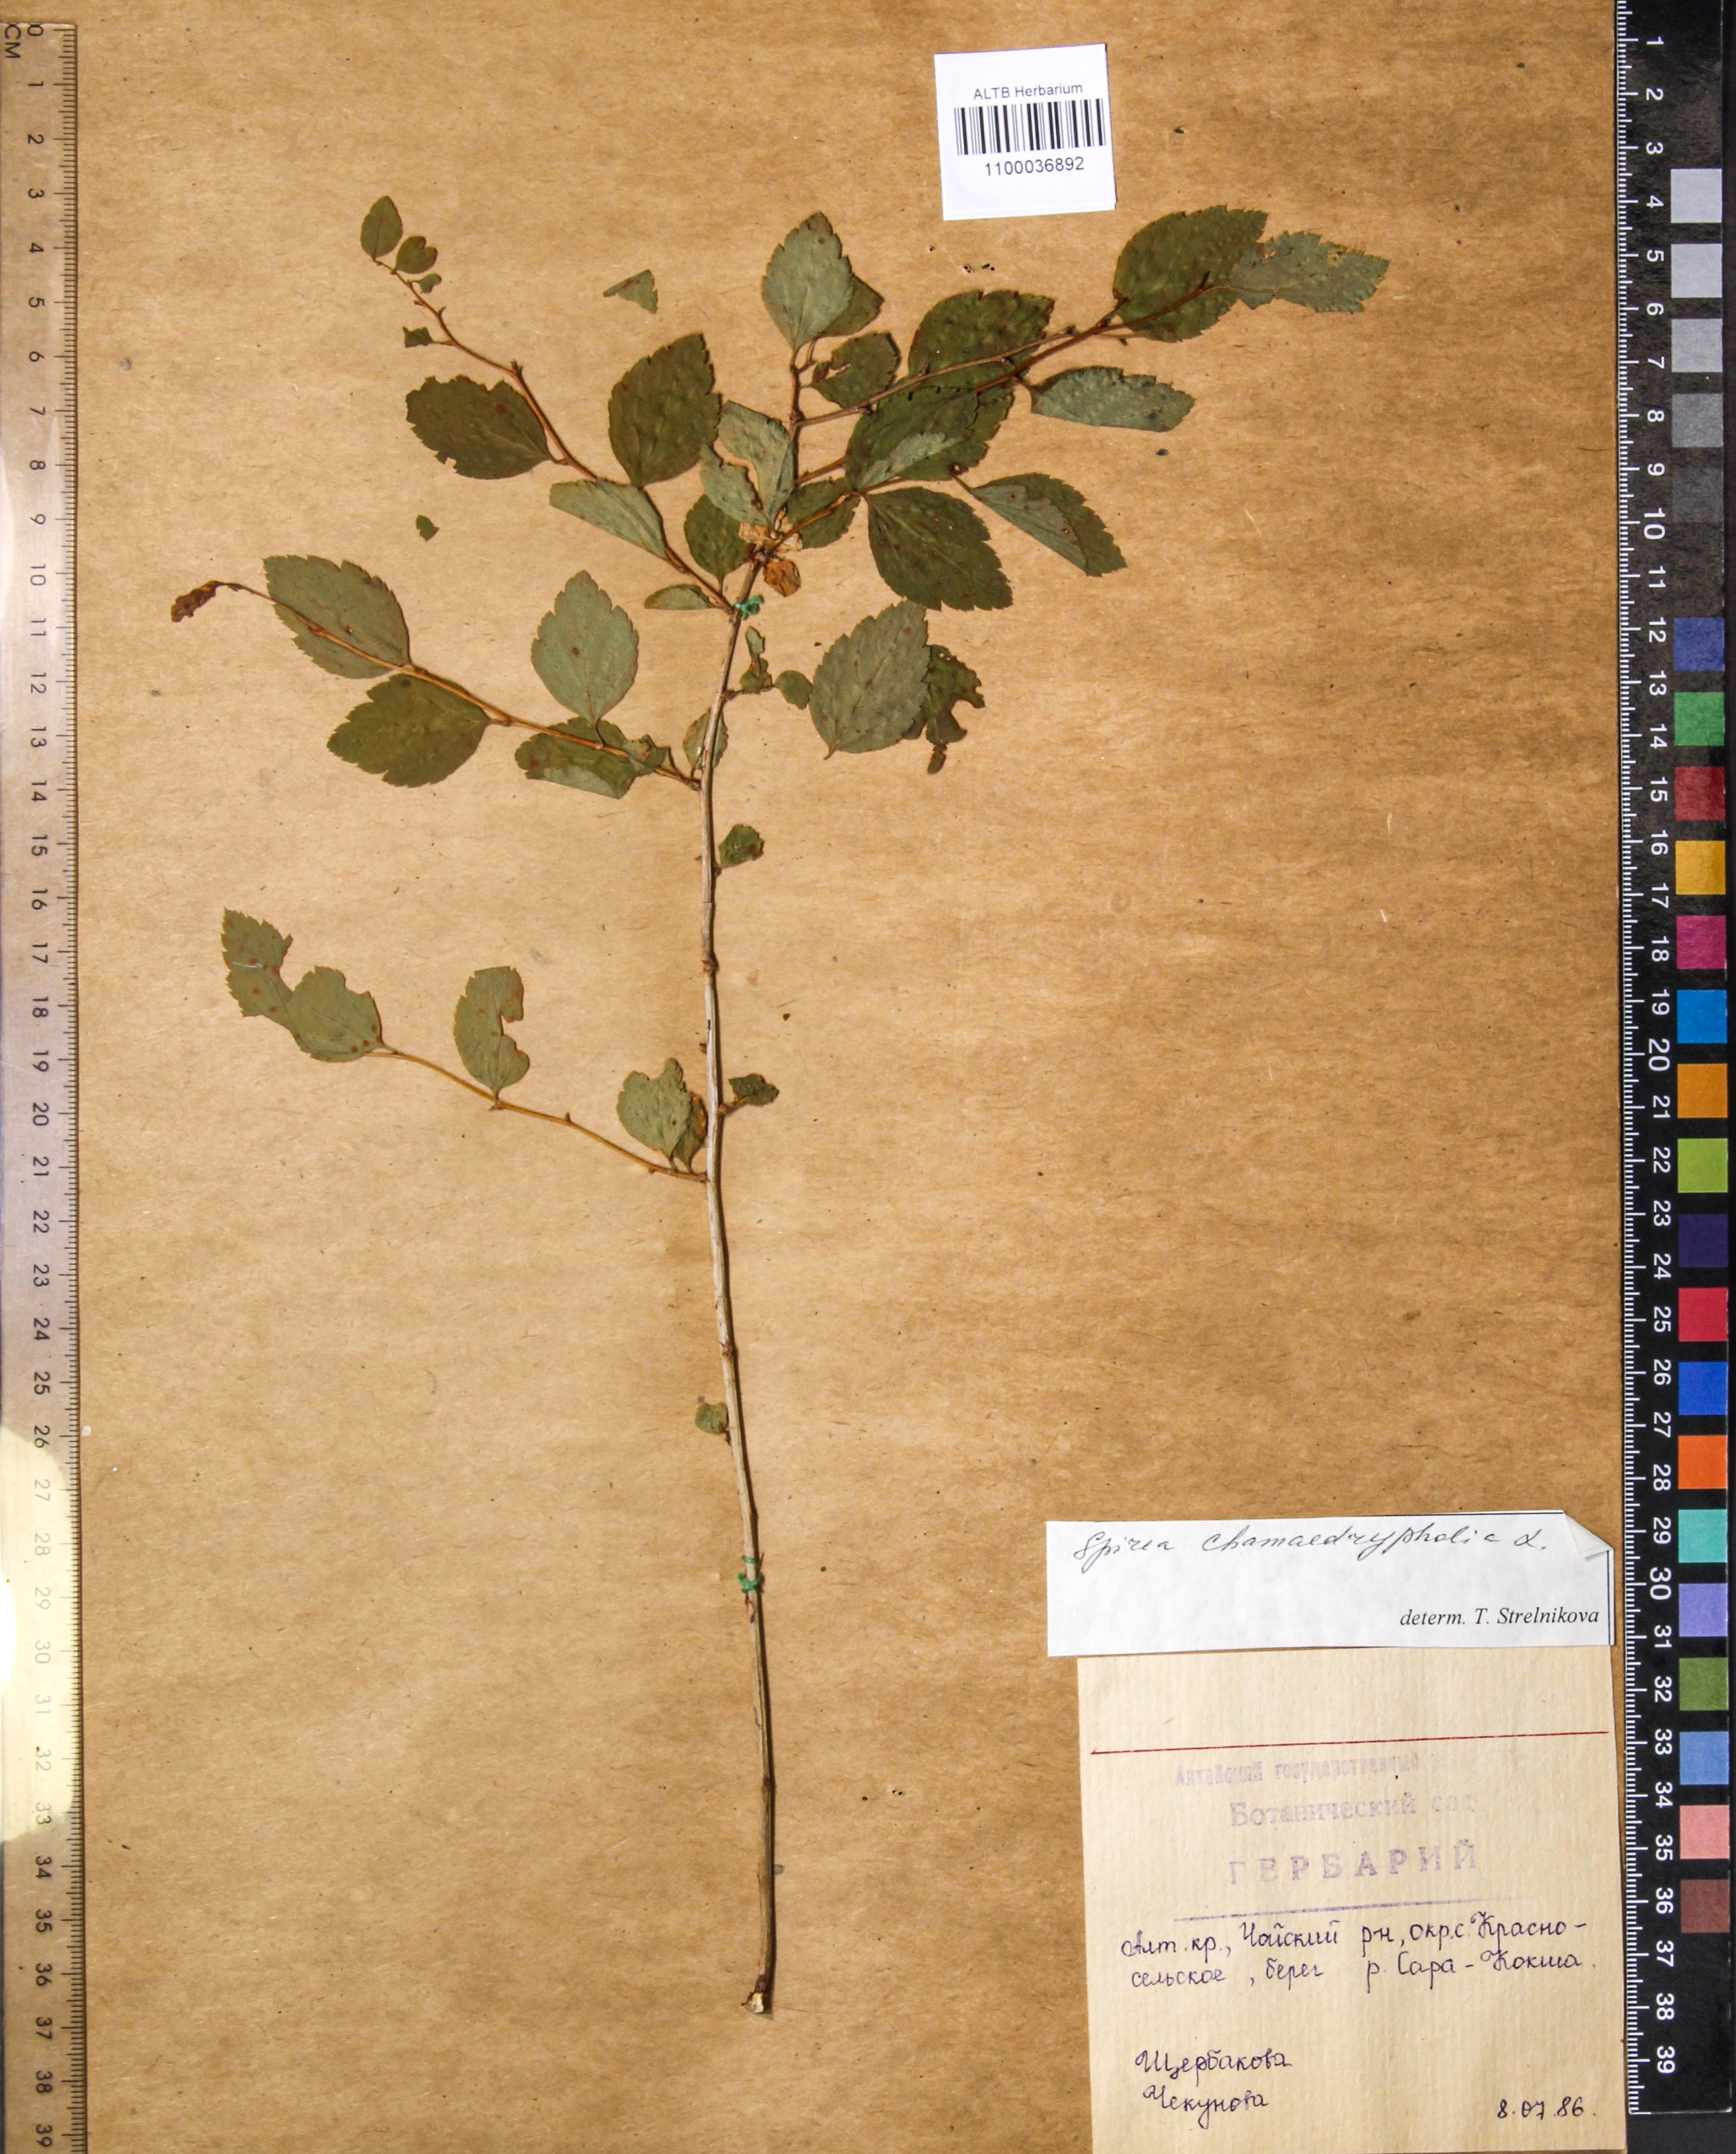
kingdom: Plantae
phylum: Tracheophyta
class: Magnoliopsida
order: Rosales
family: Rosaceae
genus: Spiraea
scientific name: Spiraea chamaedryfolia
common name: Elm-leaved spiraea
